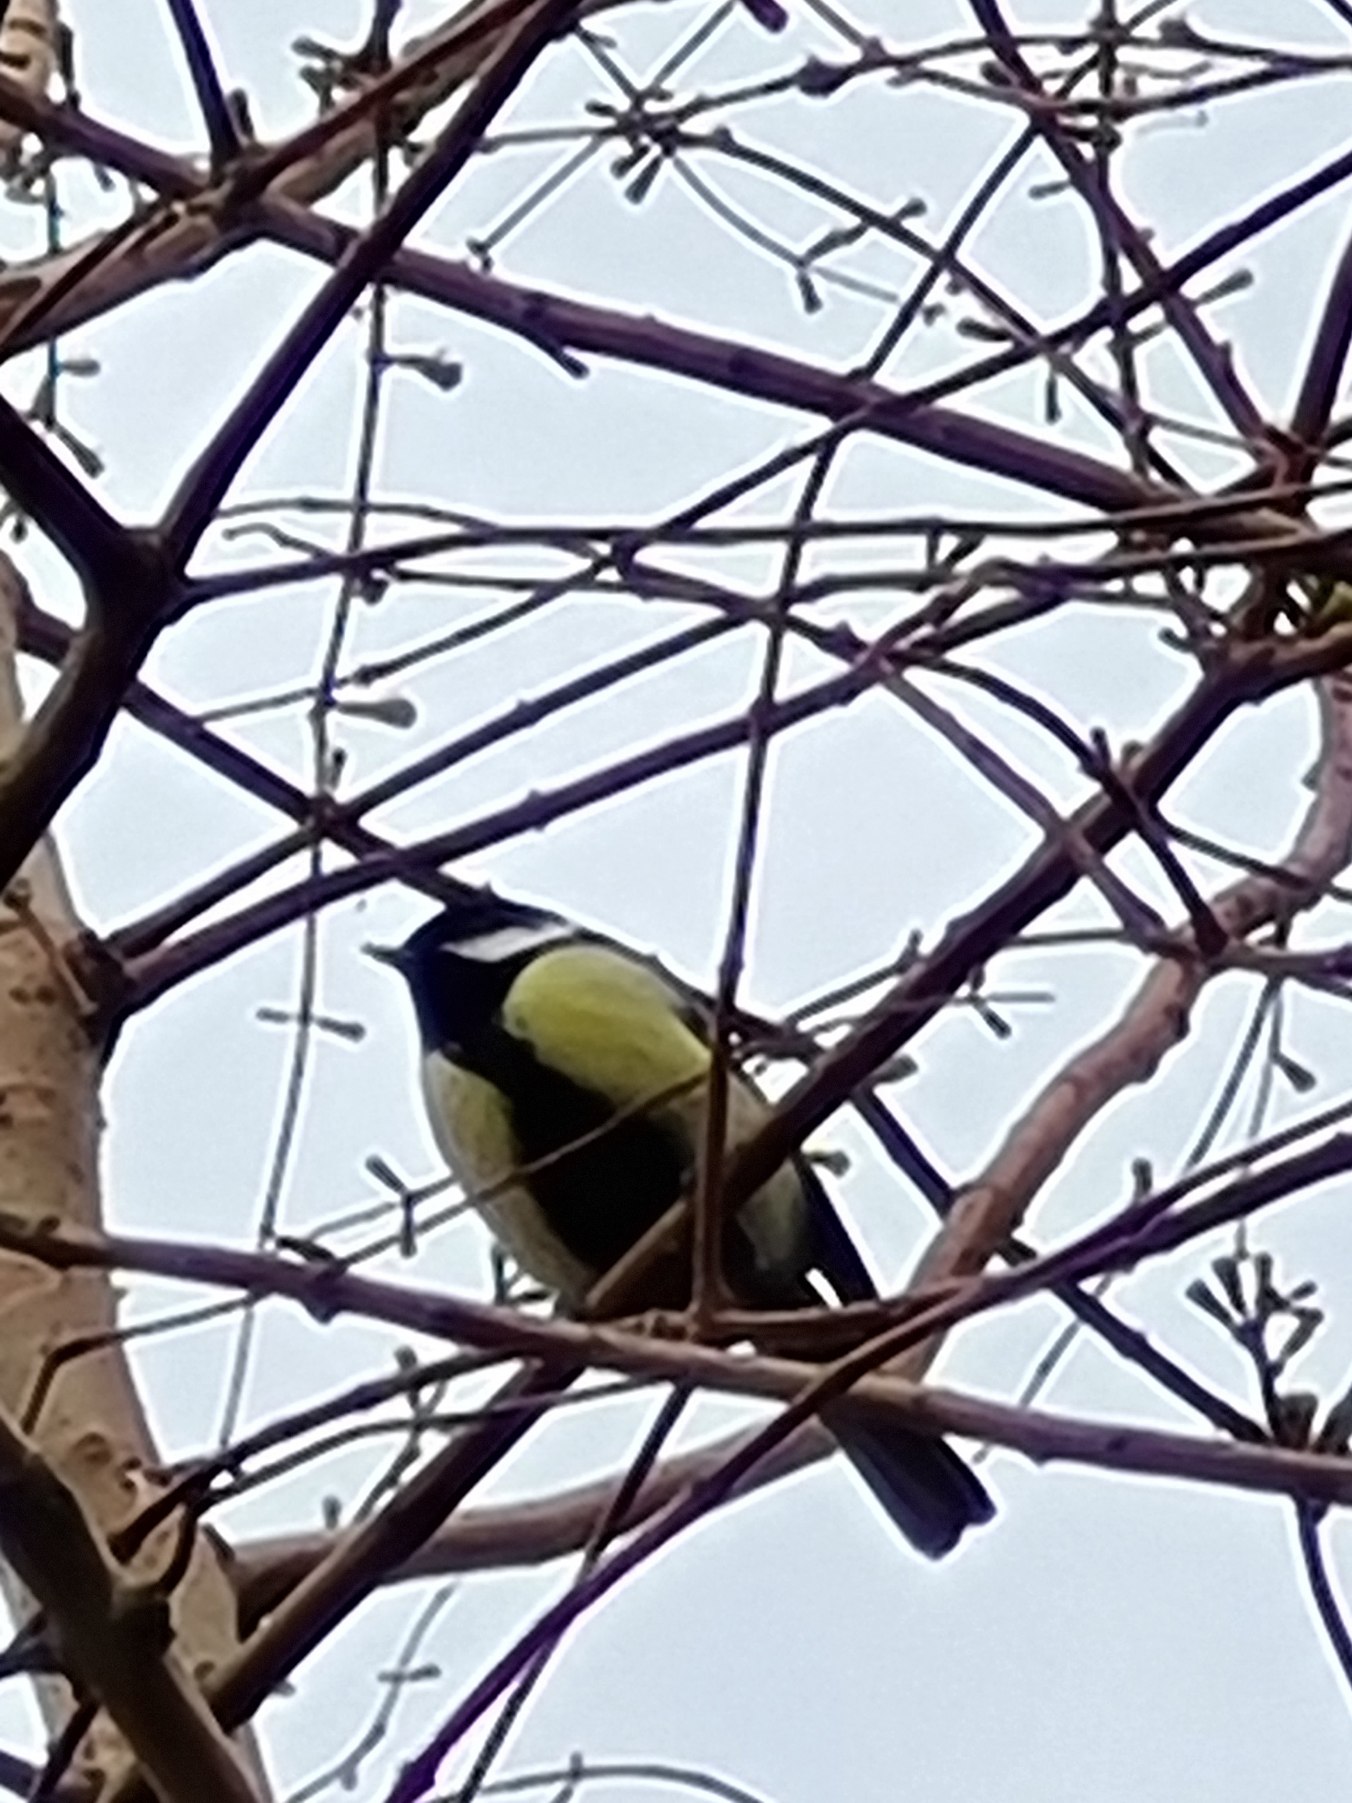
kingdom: Animalia
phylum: Chordata
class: Aves
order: Passeriformes
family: Paridae
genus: Parus
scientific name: Parus major
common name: Musvit
